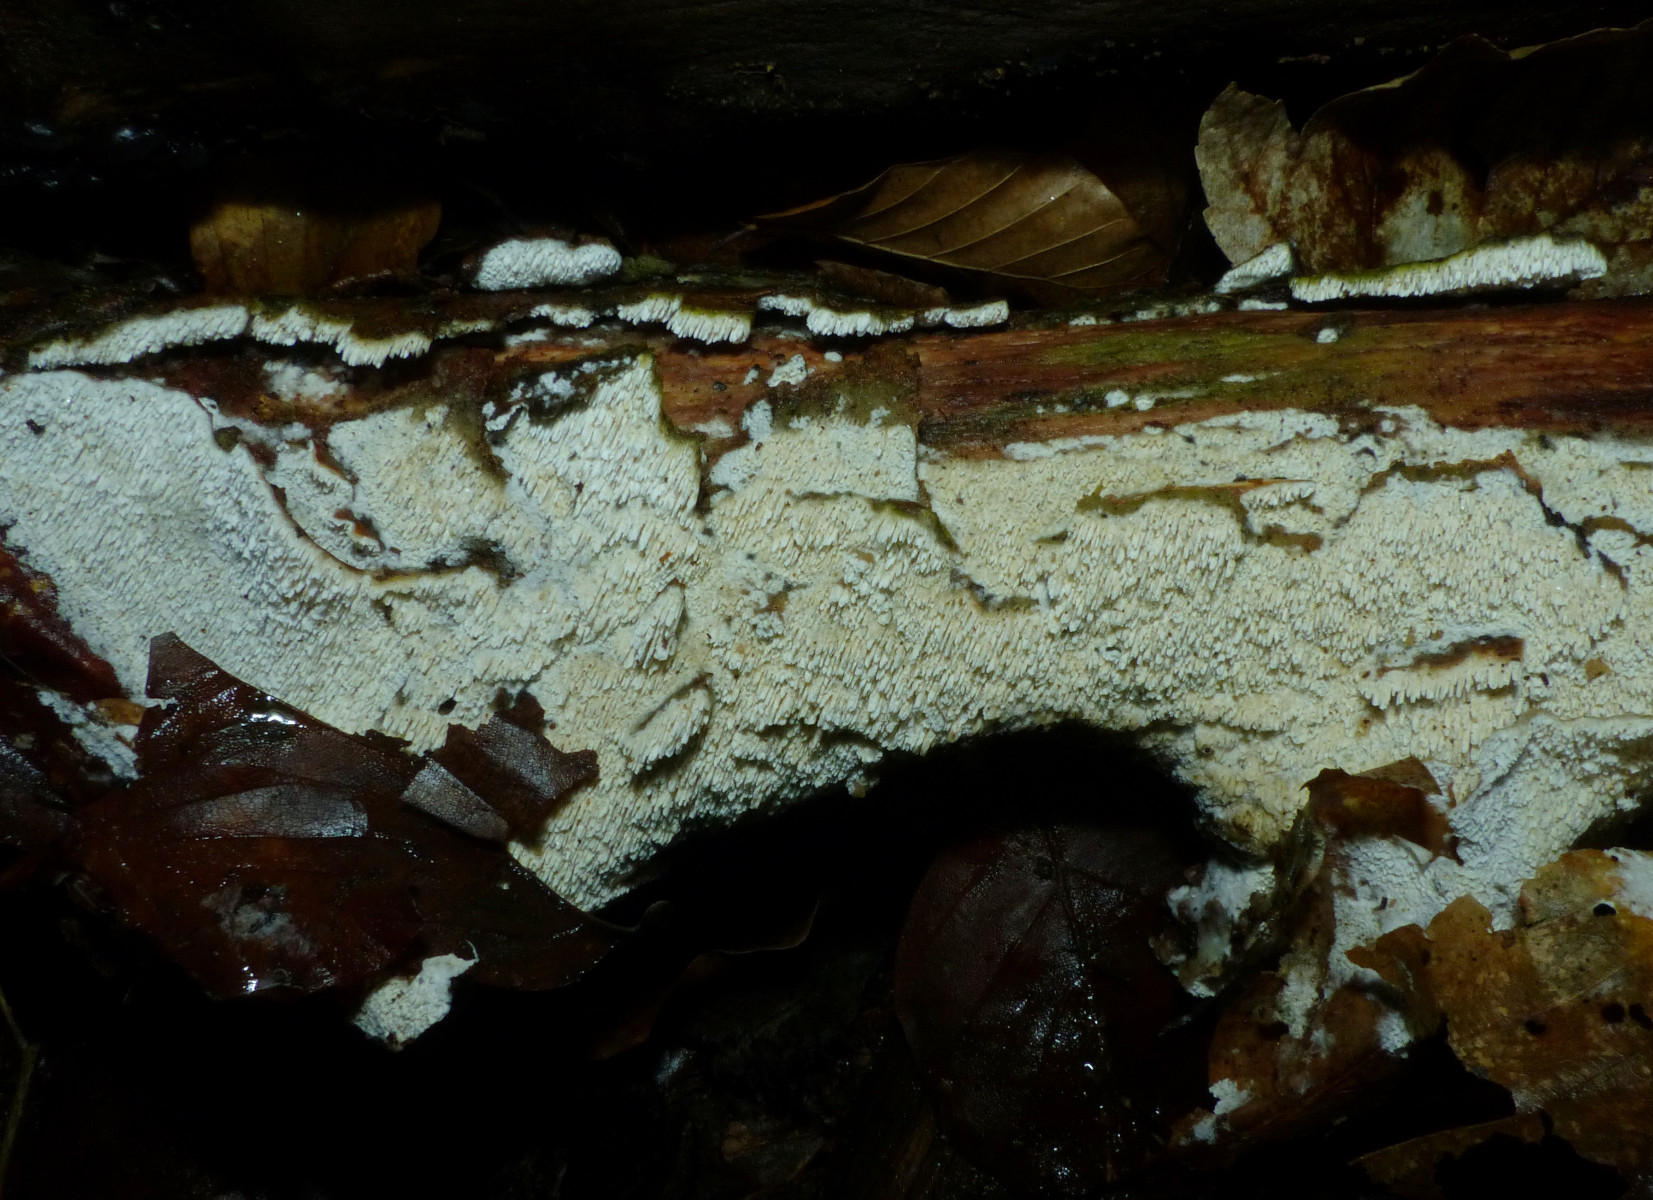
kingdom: Fungi
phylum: Basidiomycota
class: Agaricomycetes
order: Hymenochaetales
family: Schizoporaceae
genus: Schizopora
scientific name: Schizopora paradoxa
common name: hvid tandsvamp
